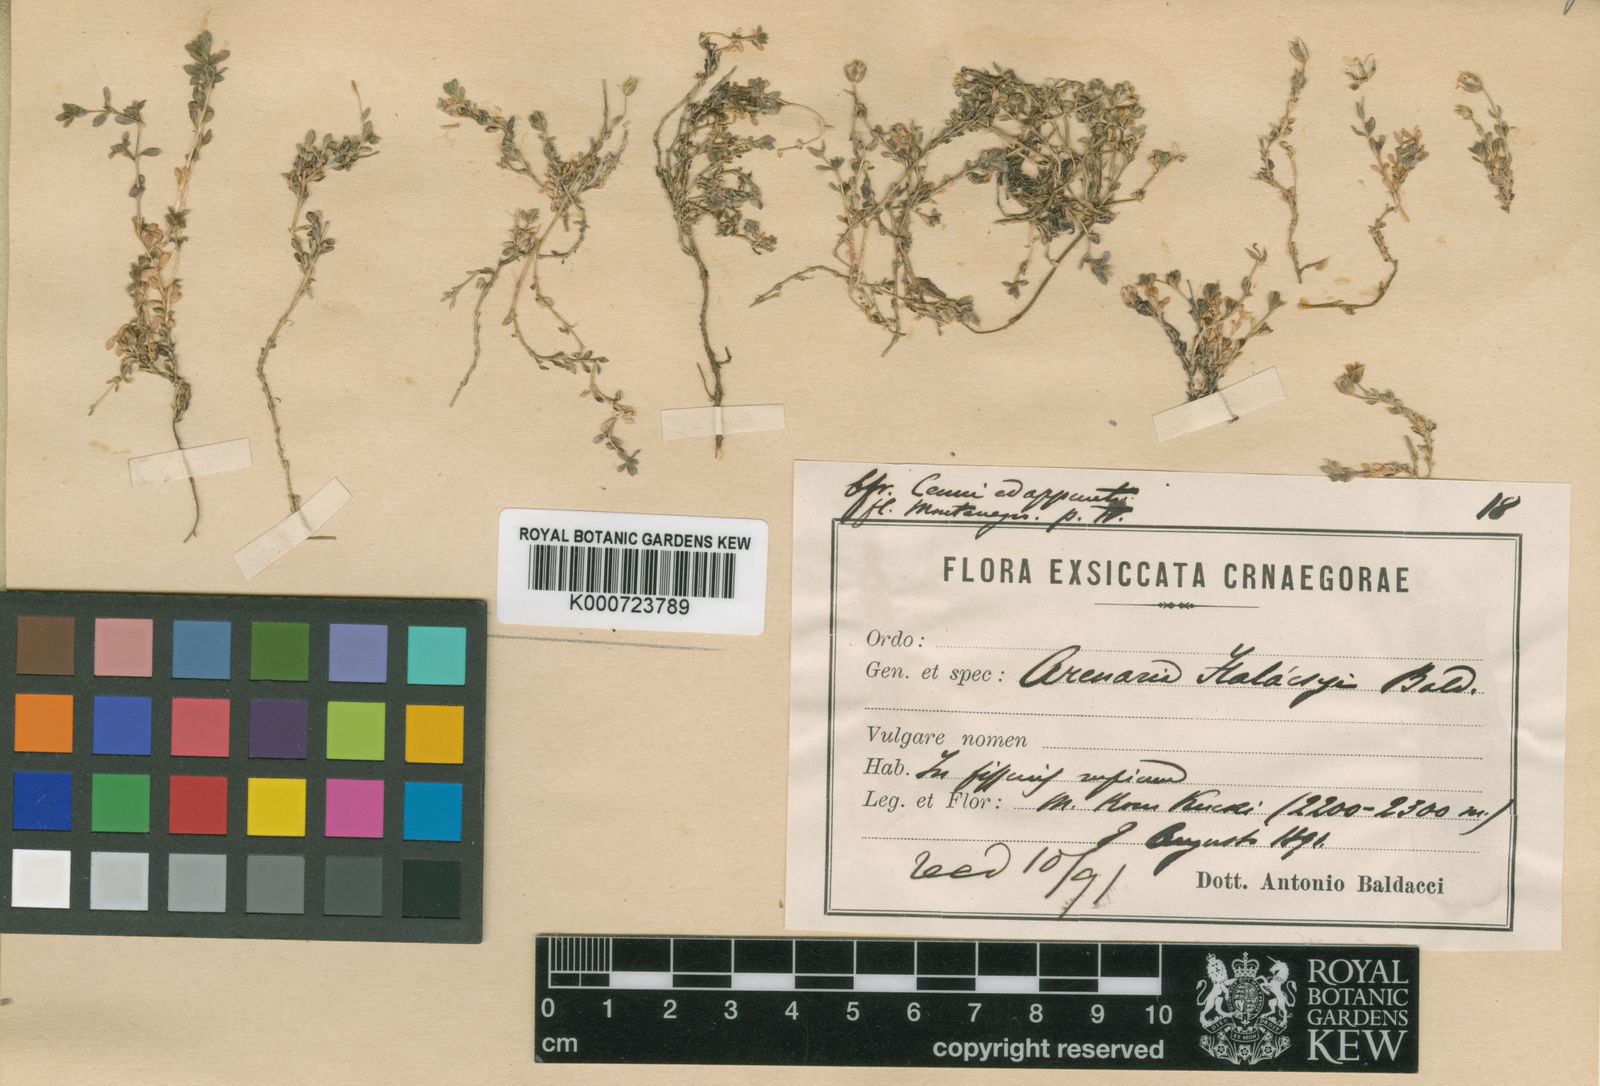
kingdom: Plantae
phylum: Tracheophyta
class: Magnoliopsida
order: Caryophyllales
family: Caryophyllaceae
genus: Arenaria
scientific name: Arenaria halacsyi
